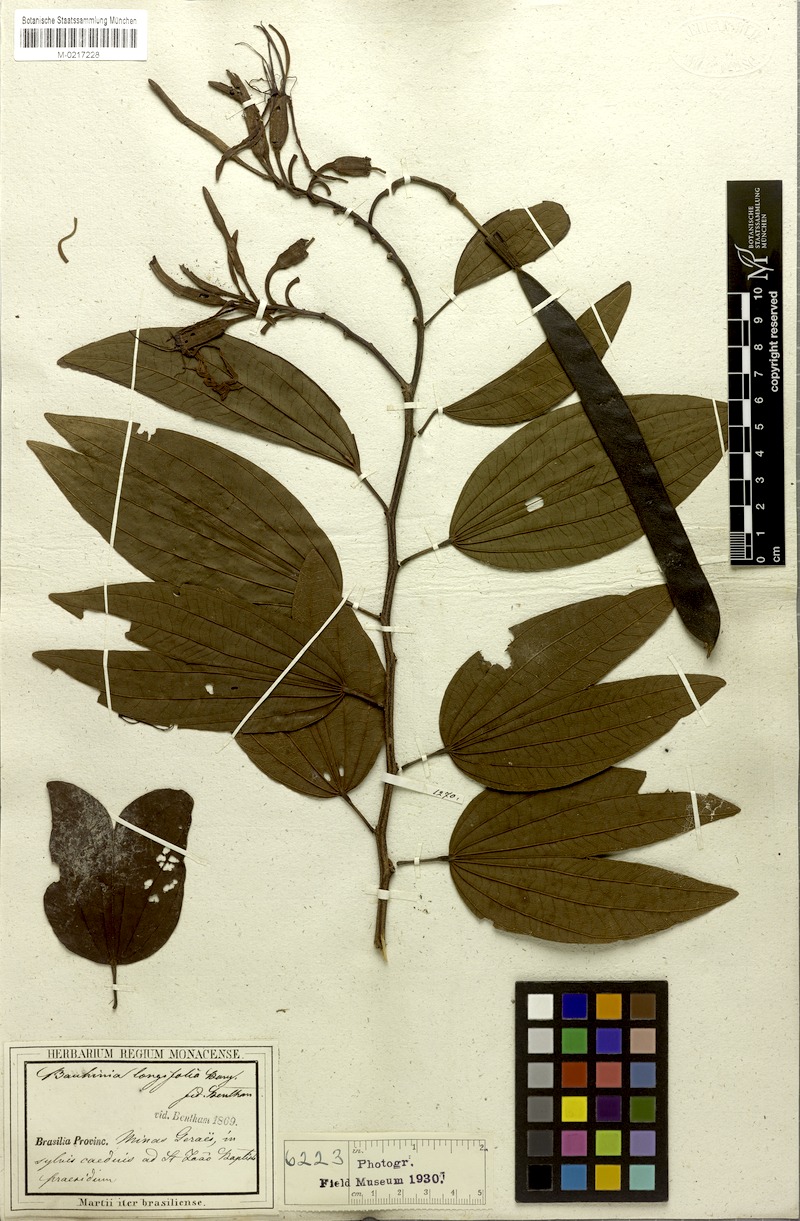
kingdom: Plantae
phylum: Tracheophyta
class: Magnoliopsida
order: Fabales
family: Fabaceae
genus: Bauhinia
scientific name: Bauhinia longifolia
